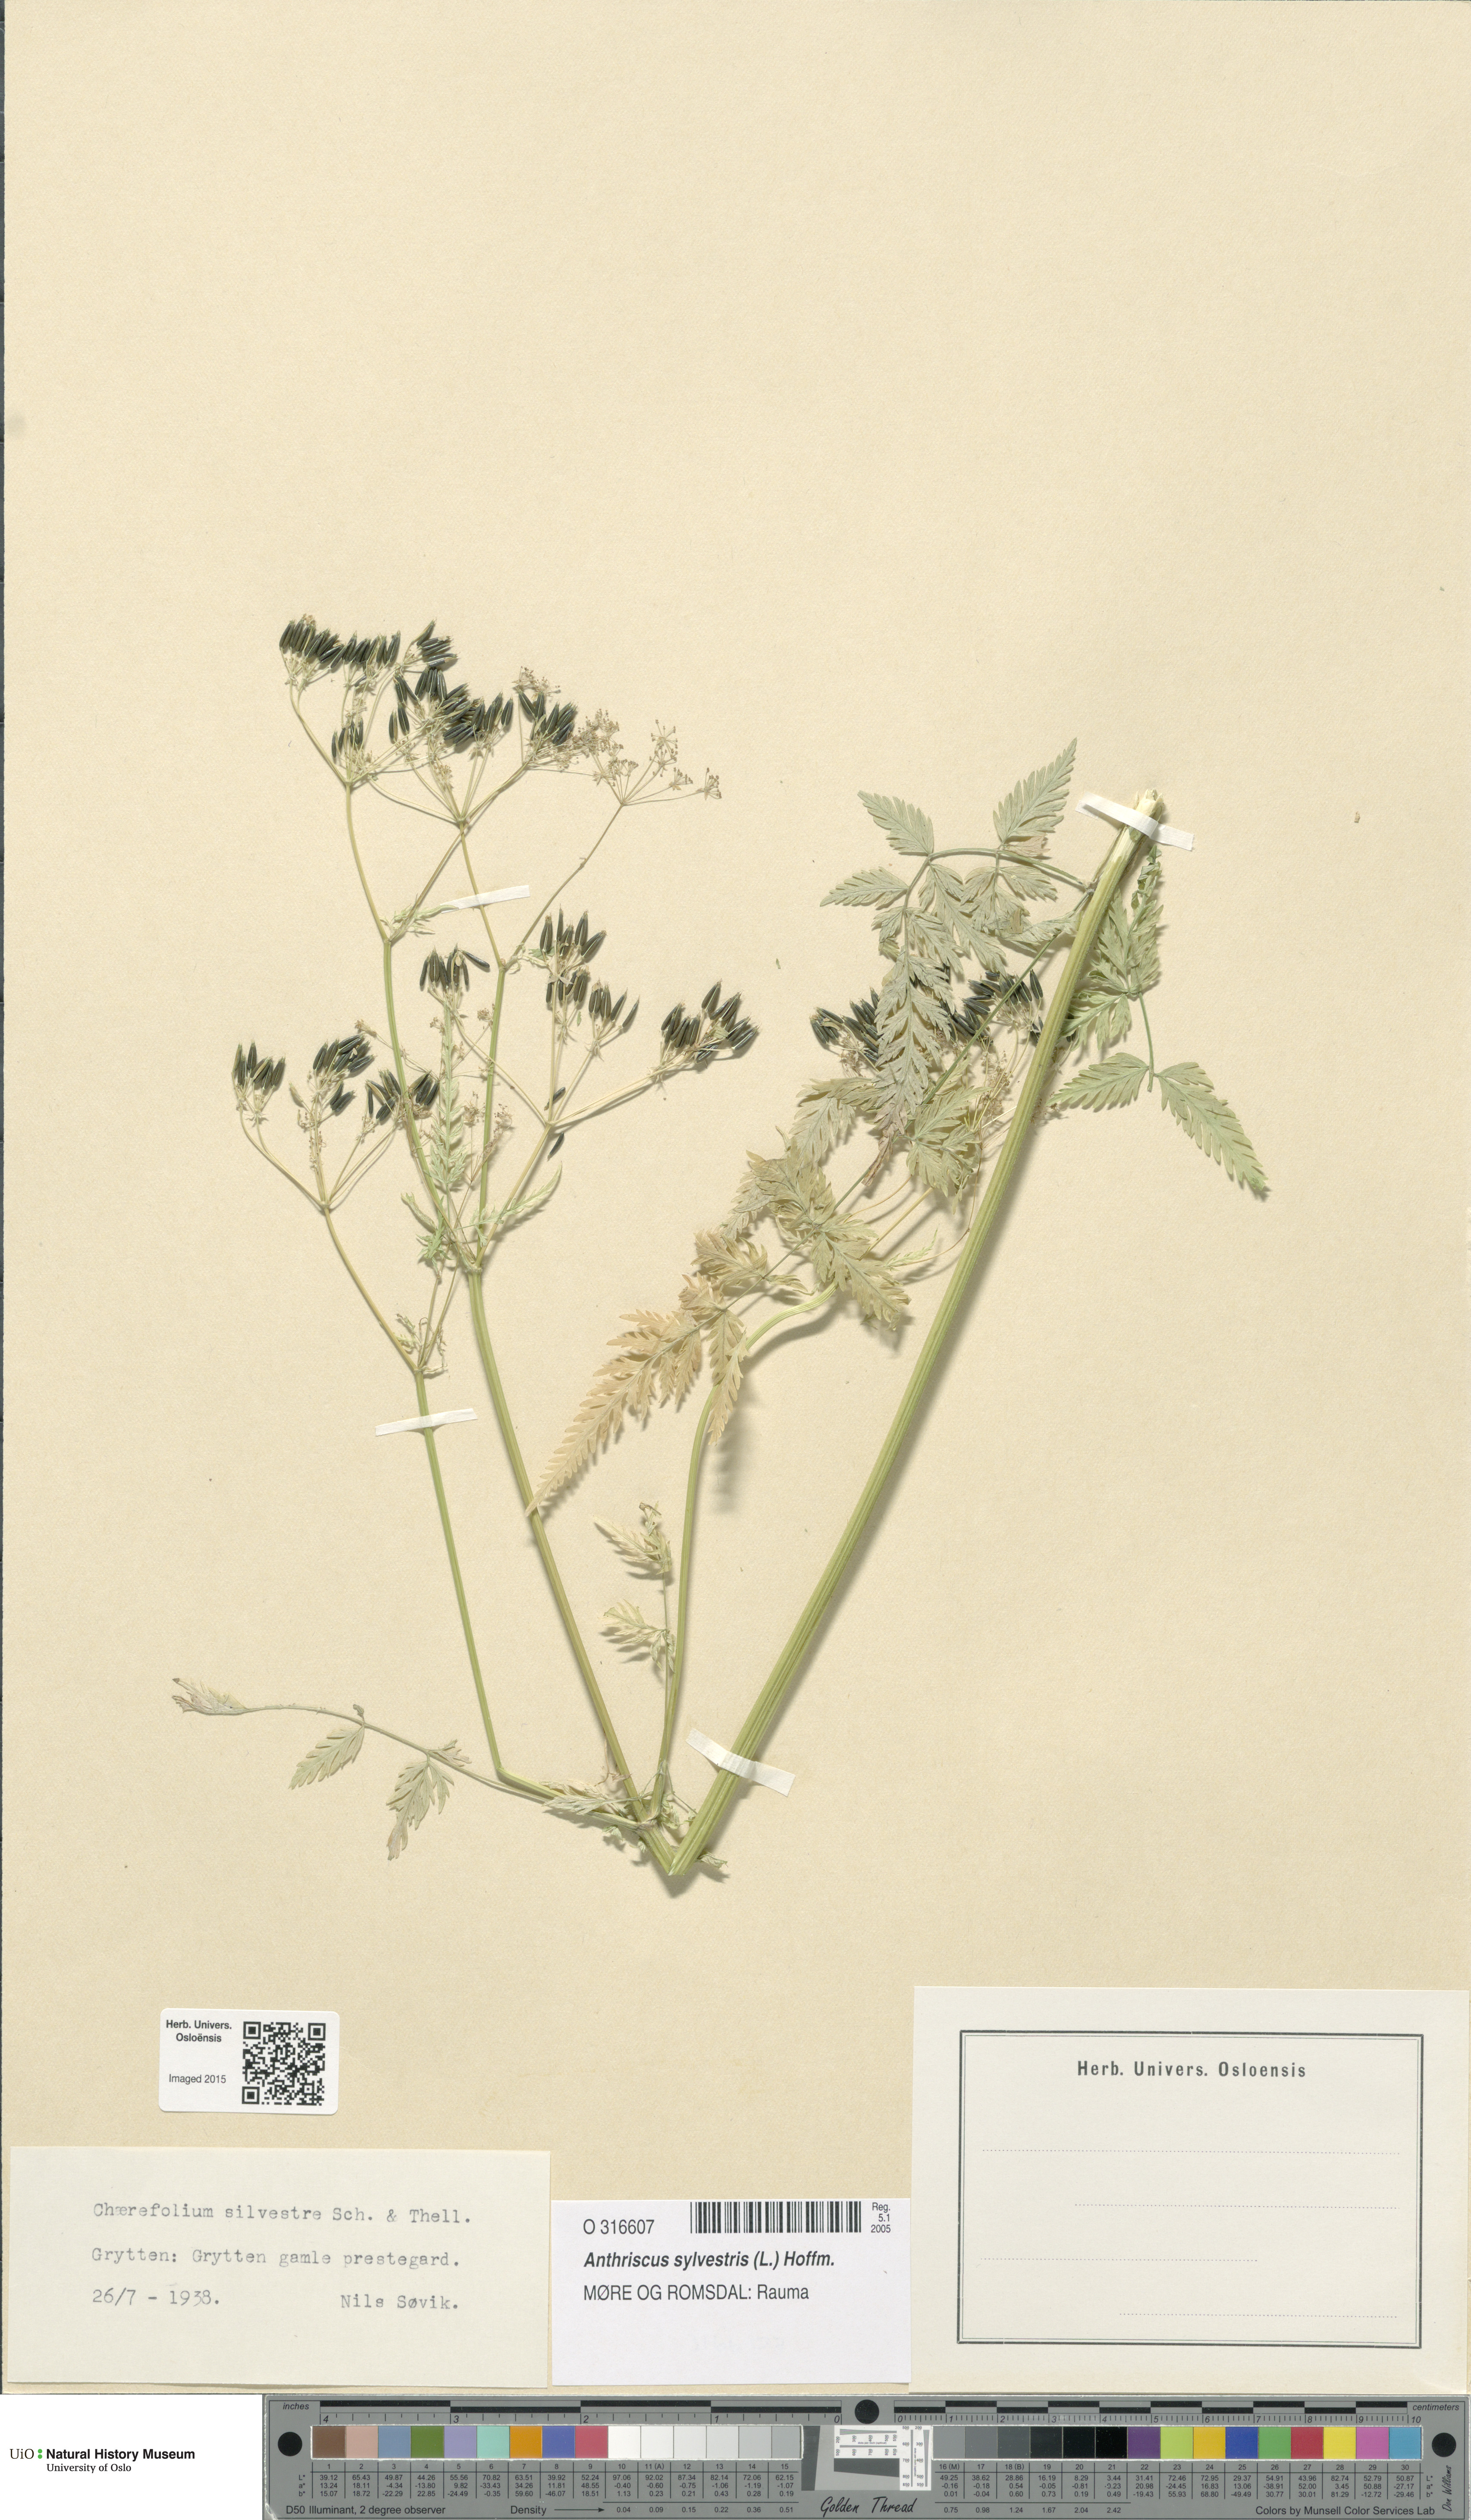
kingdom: Plantae
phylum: Tracheophyta
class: Magnoliopsida
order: Apiales
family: Apiaceae
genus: Anthriscus
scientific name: Anthriscus sylvestris
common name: Cow parsley
